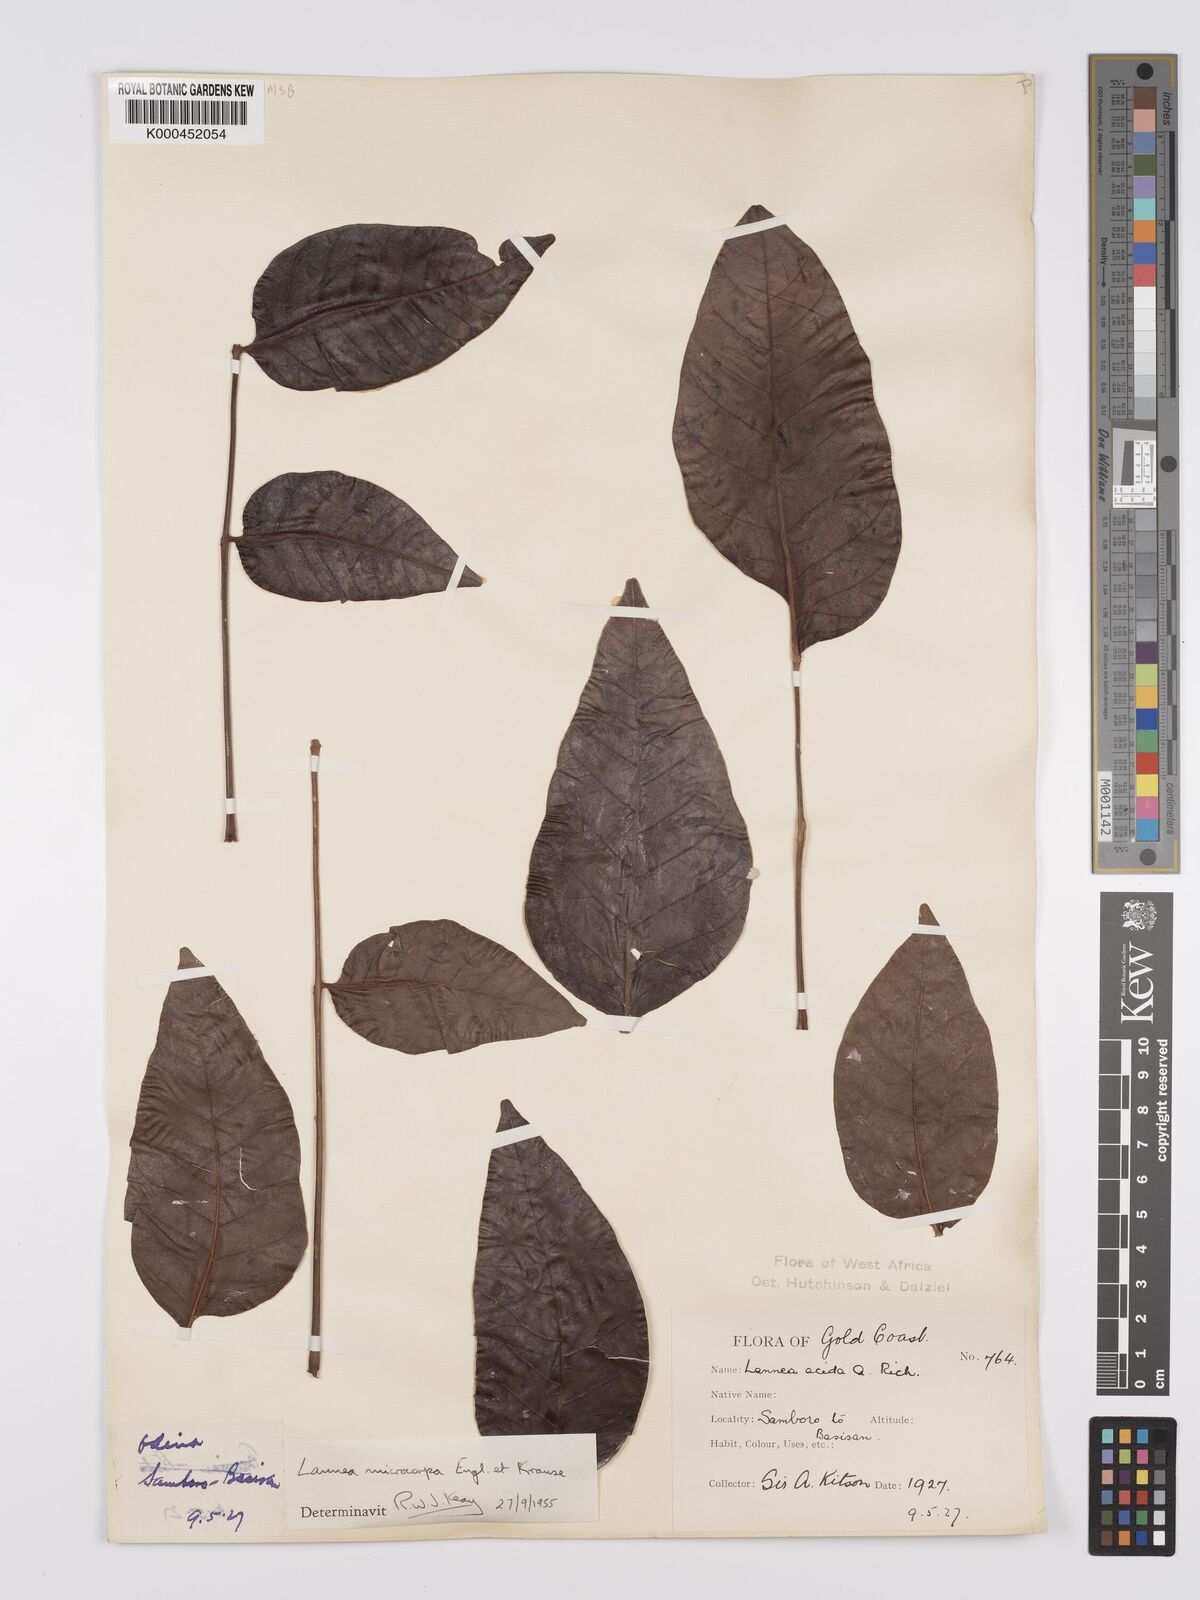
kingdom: Plantae
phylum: Tracheophyta
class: Magnoliopsida
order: Sapindales
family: Anacardiaceae
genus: Lannea
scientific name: Lannea microcarpa
